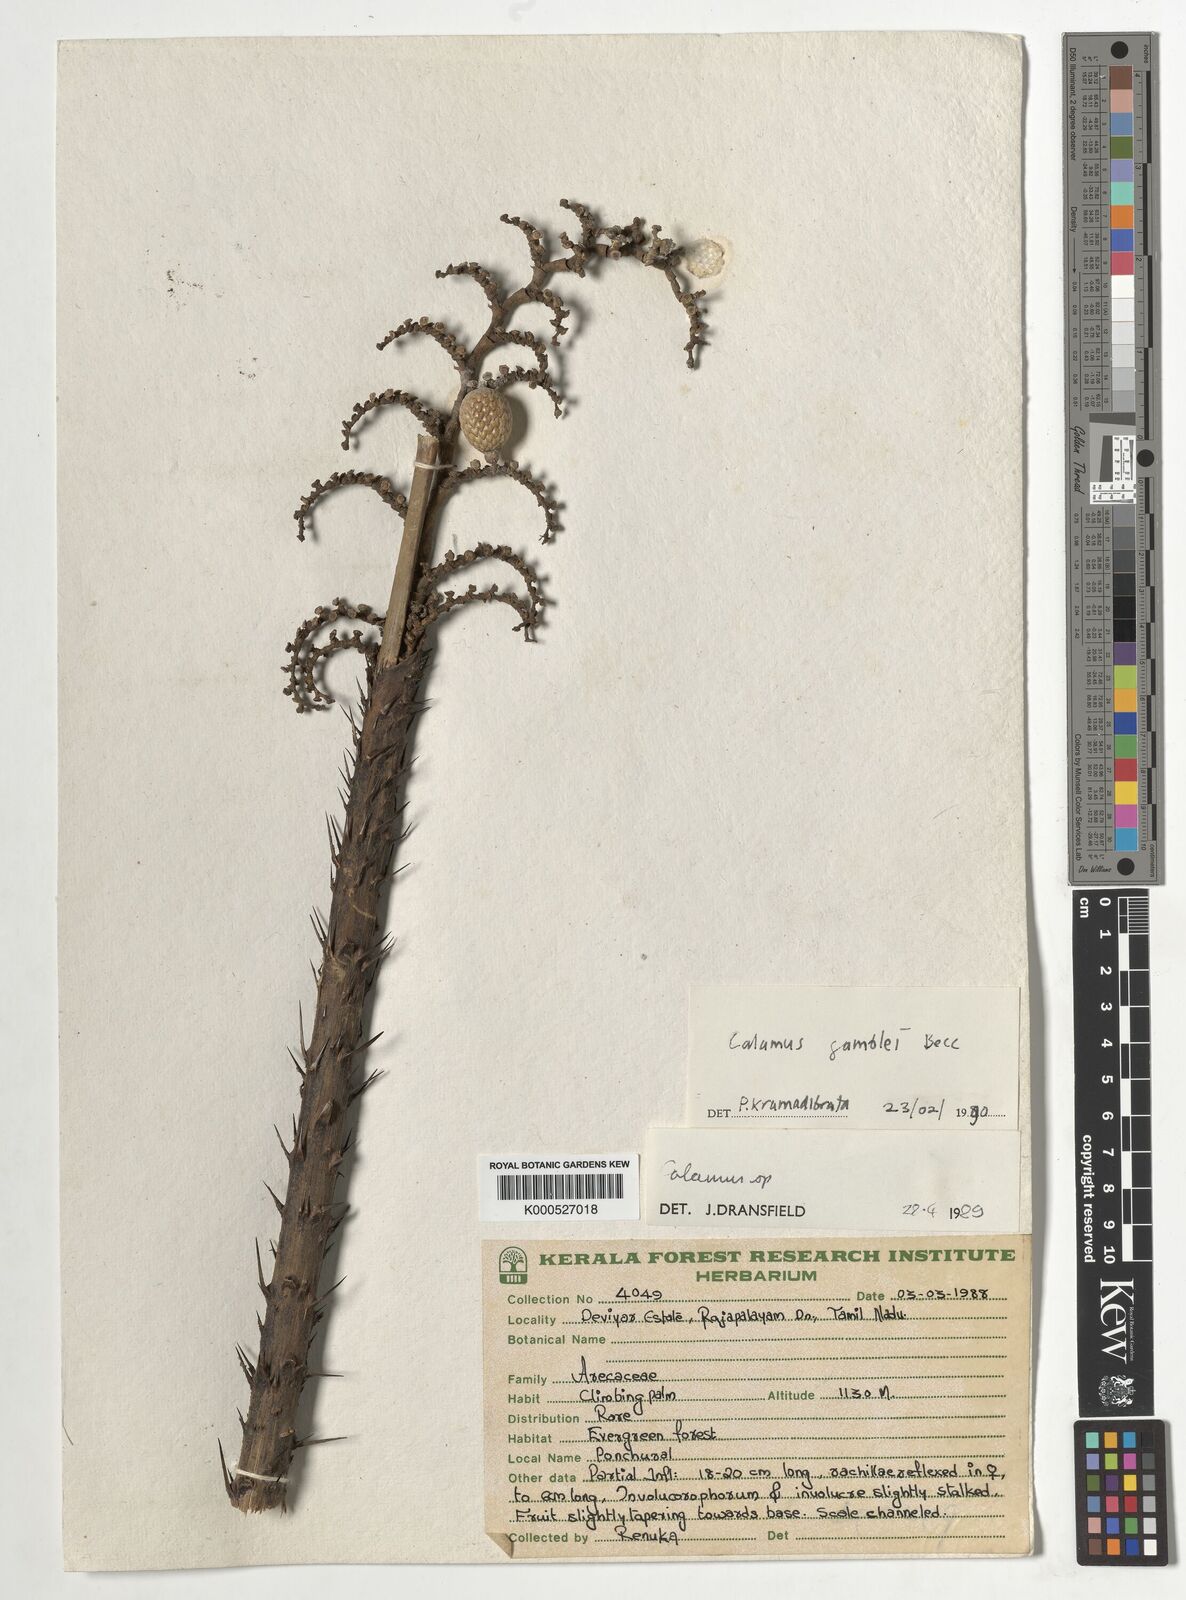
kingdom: Plantae
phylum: Tracheophyta
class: Liliopsida
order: Arecales
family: Arecaceae
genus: Calamus
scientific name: Calamus gamblei
